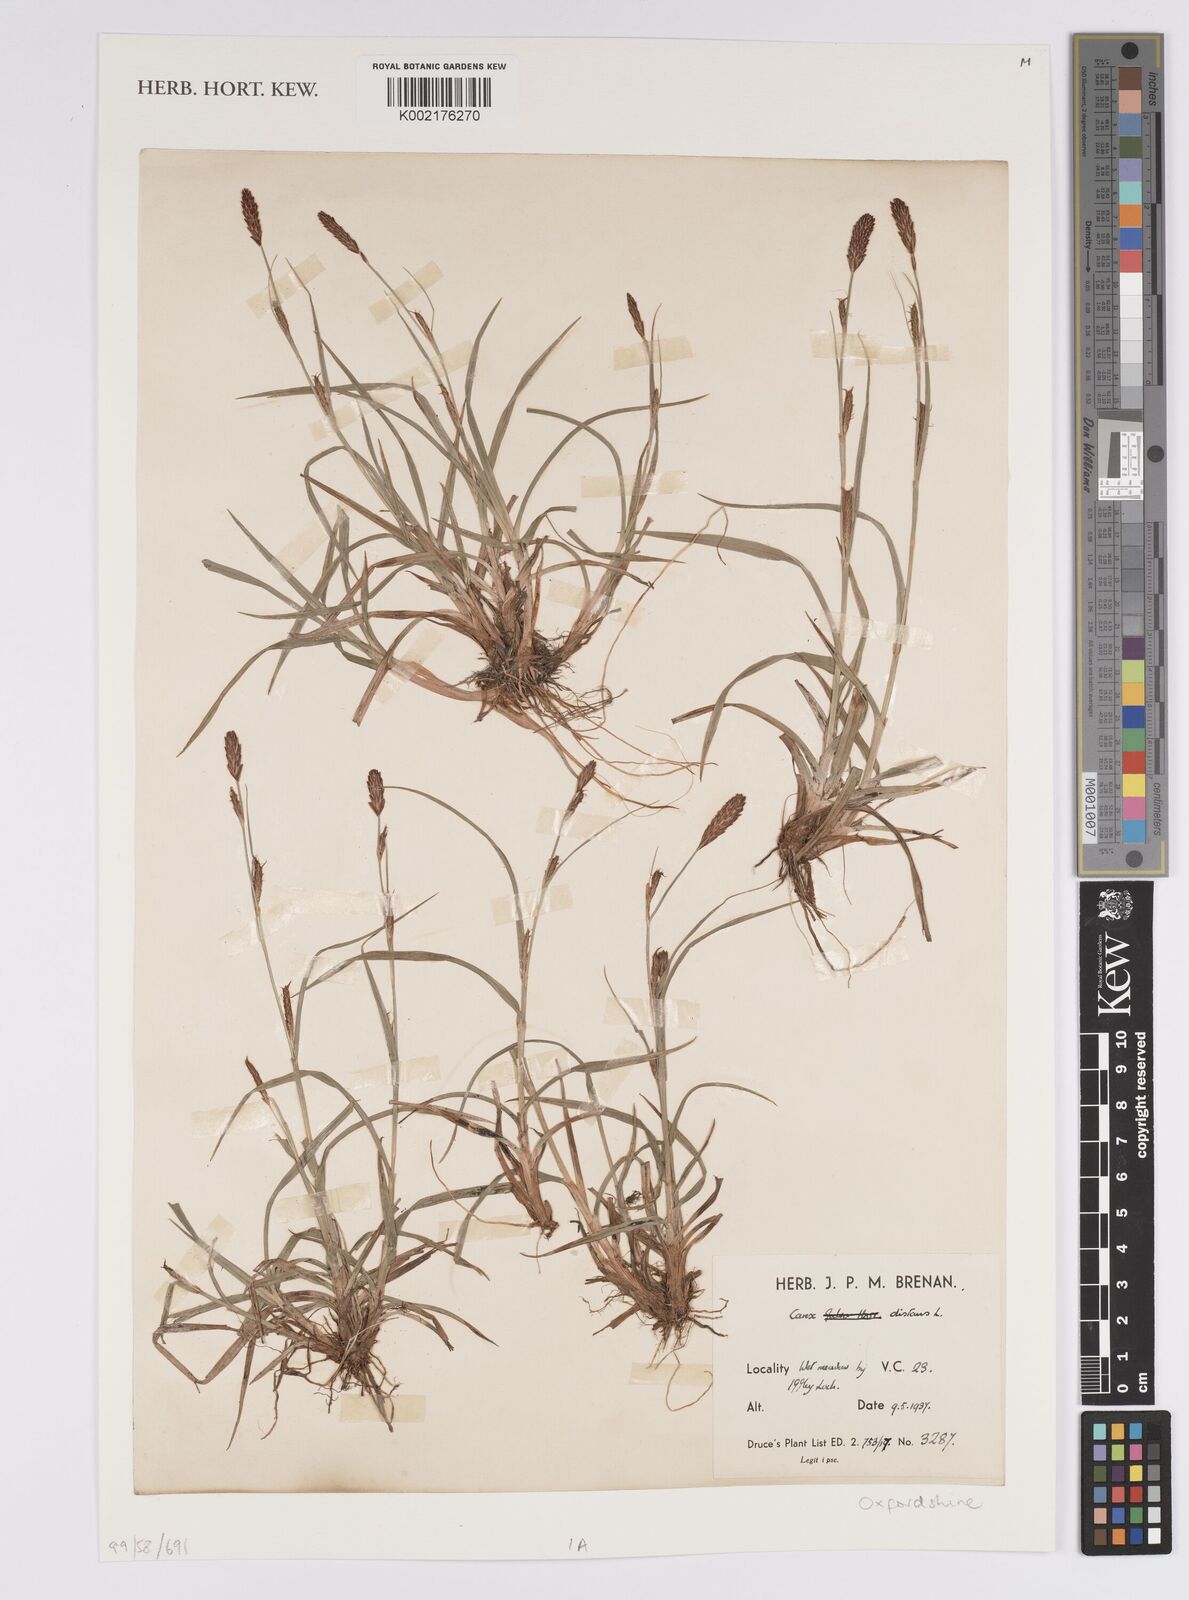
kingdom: Plantae
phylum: Tracheophyta
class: Liliopsida
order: Poales
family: Cyperaceae
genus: Carex
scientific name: Carex distans
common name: Distant sedge
